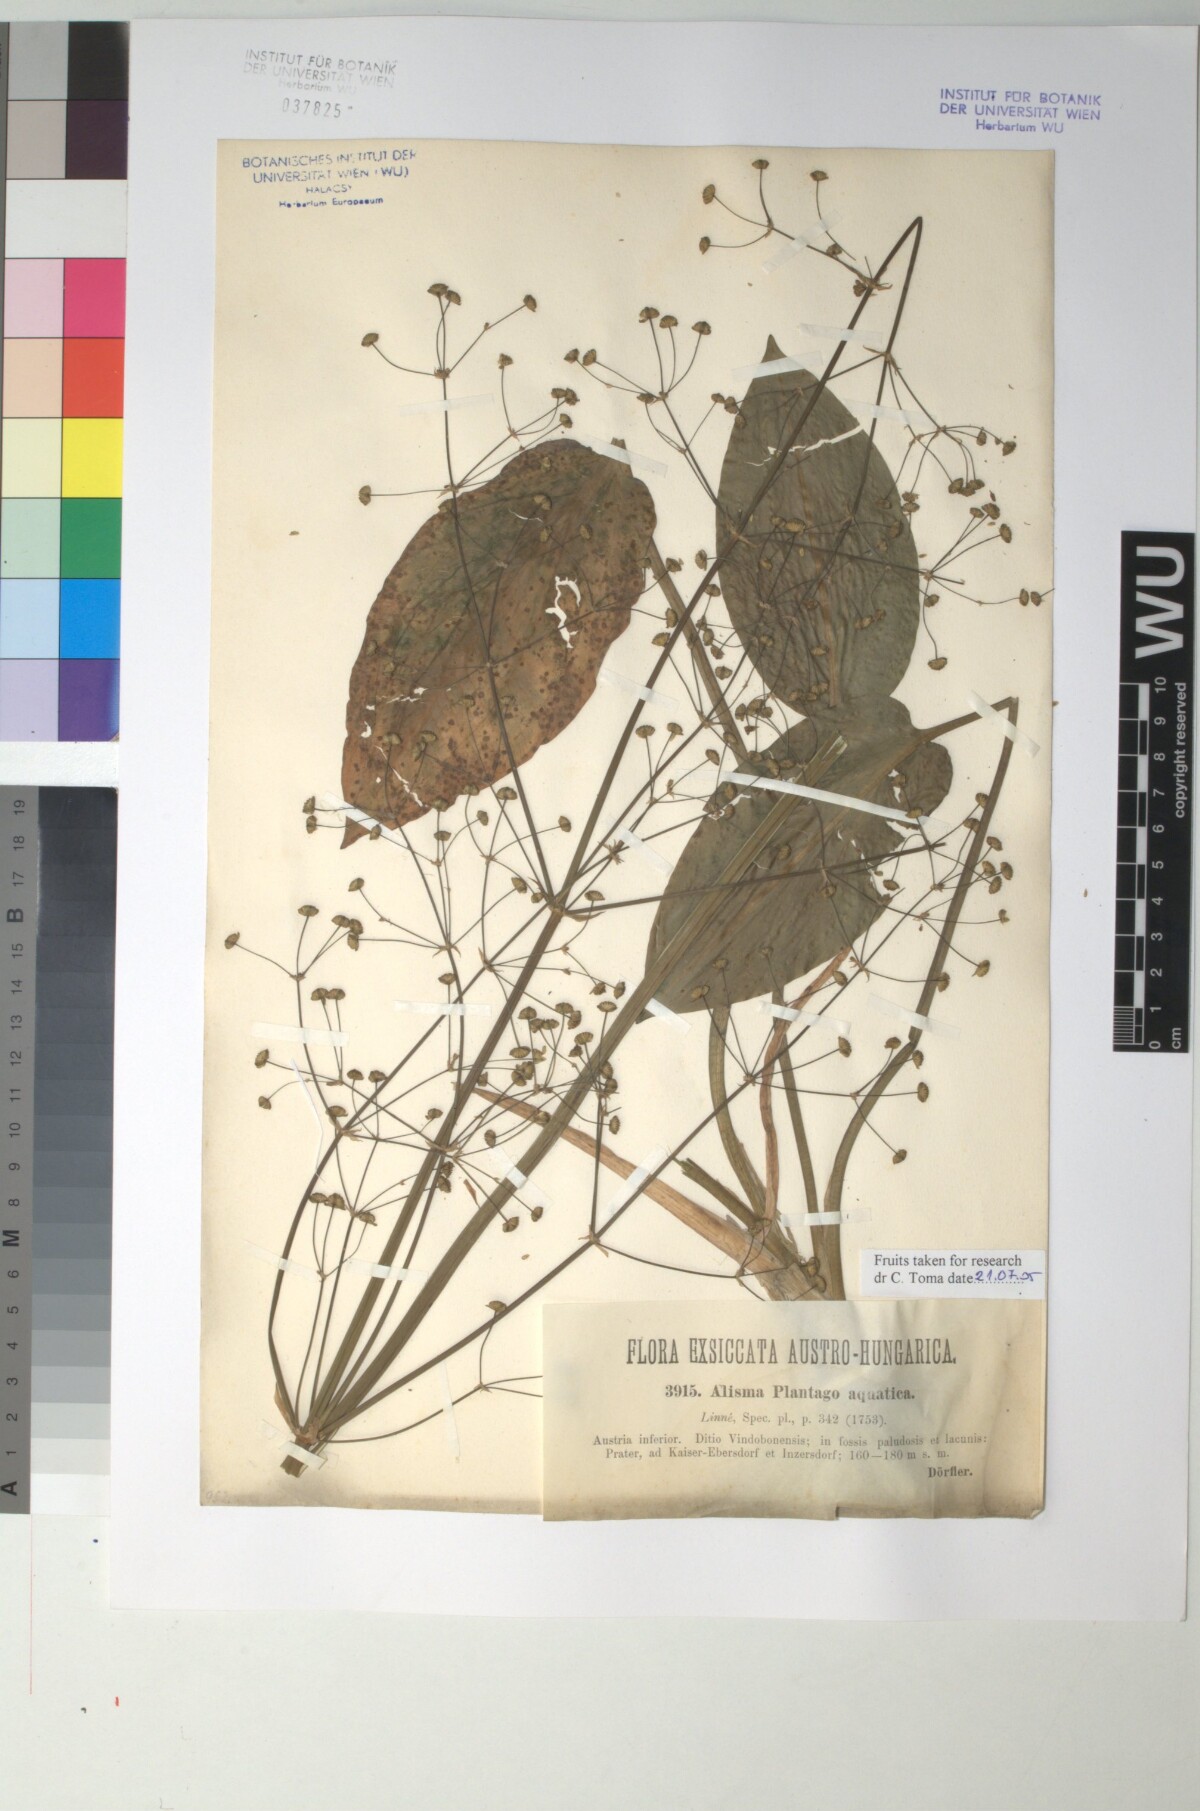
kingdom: Plantae
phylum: Tracheophyta
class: Liliopsida
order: Alismatales
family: Alismataceae
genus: Alisma
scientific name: Alisma plantago-aquatica
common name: Water-plantain
